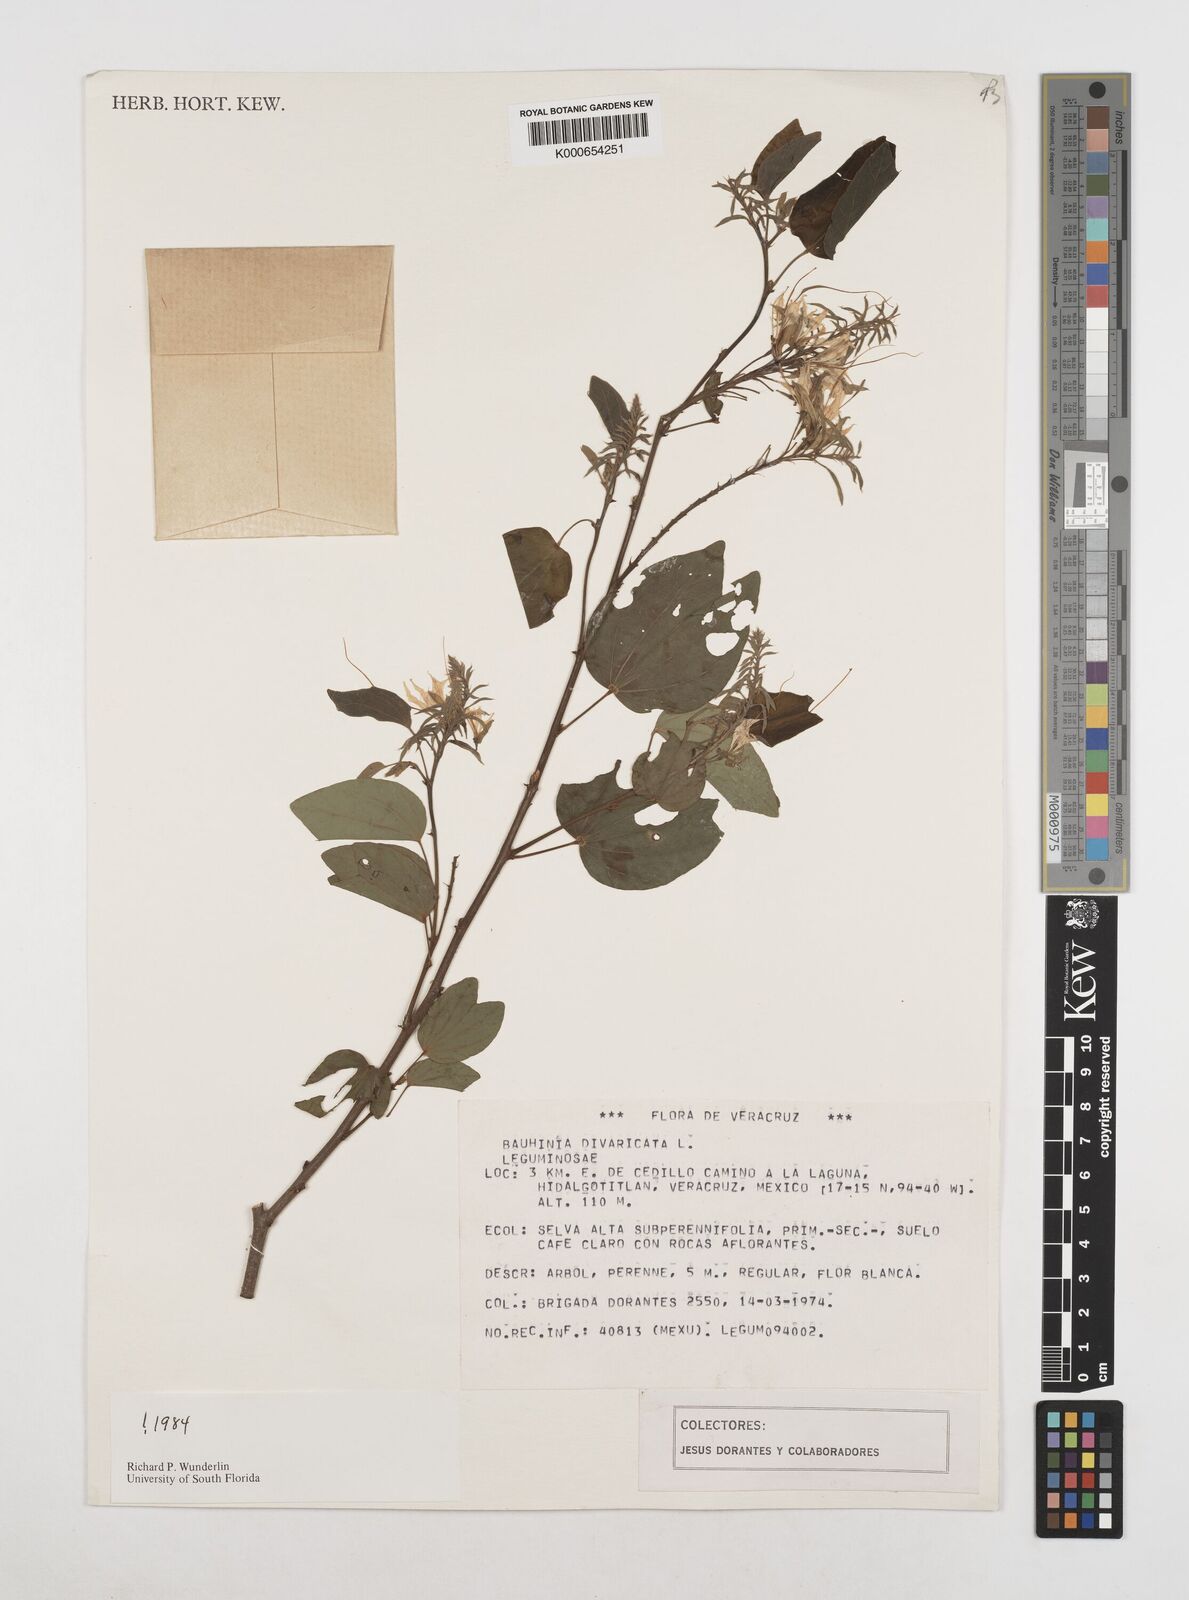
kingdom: Plantae
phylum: Tracheophyta
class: Magnoliopsida
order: Fabales
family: Fabaceae
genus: Bauhinia
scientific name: Bauhinia divaricata
